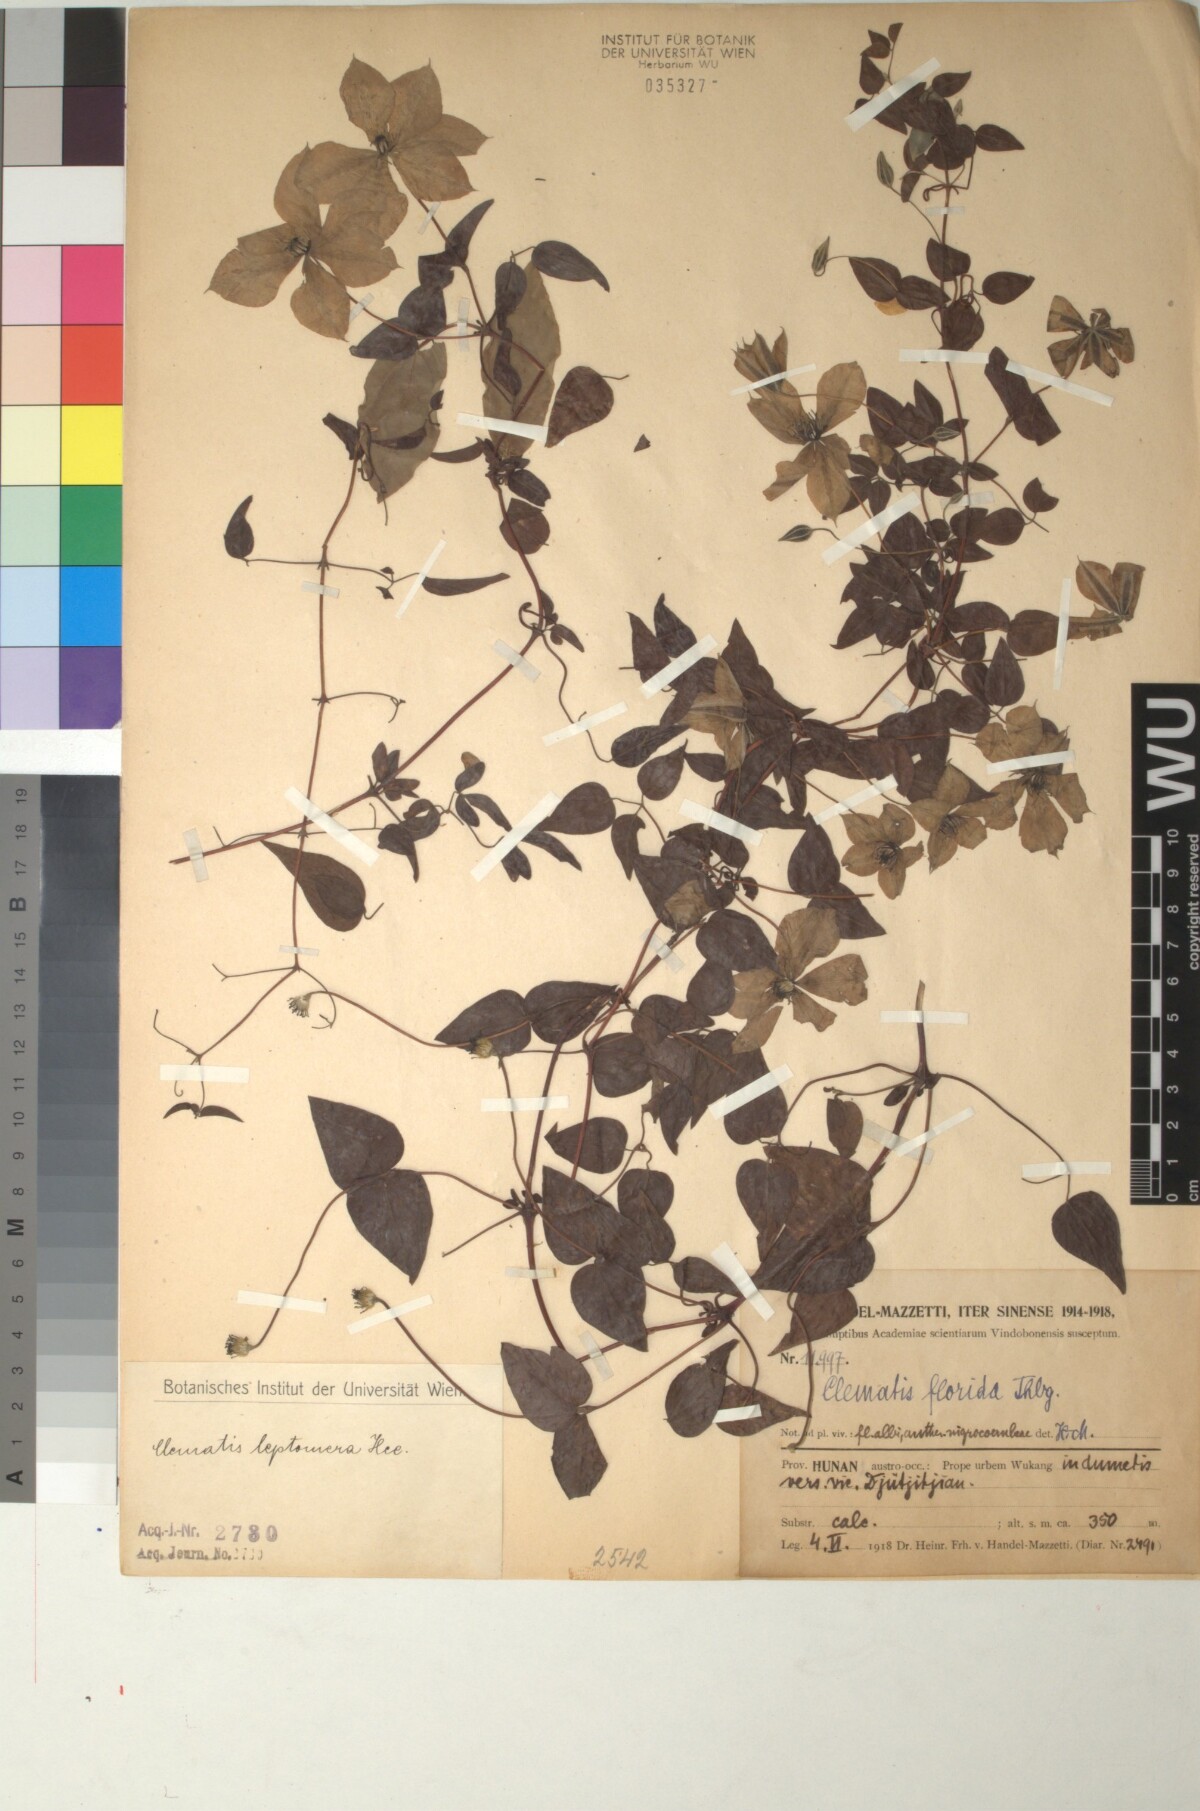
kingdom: Plantae
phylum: Tracheophyta
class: Magnoliopsida
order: Ranunculales
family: Ranunculaceae
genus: Clematis
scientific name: Clematis xiangguiensis
